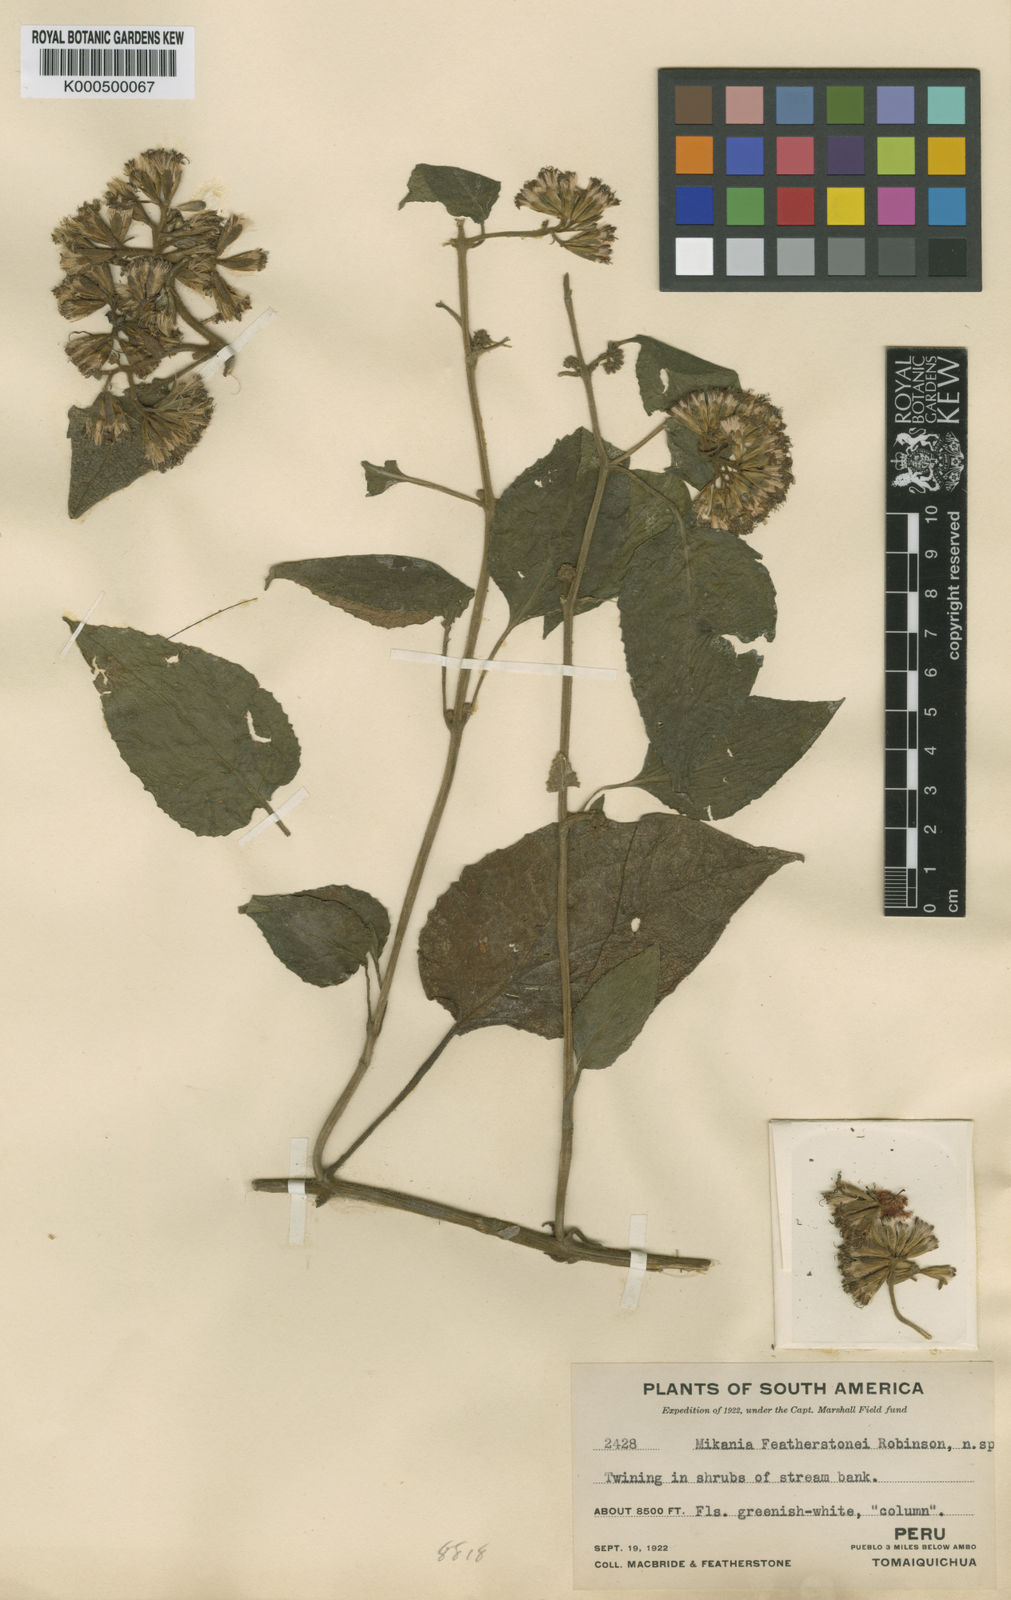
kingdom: Plantae
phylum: Tracheophyta
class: Magnoliopsida
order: Asterales
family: Asteraceae
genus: Mikania
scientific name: Mikania featherstonei
